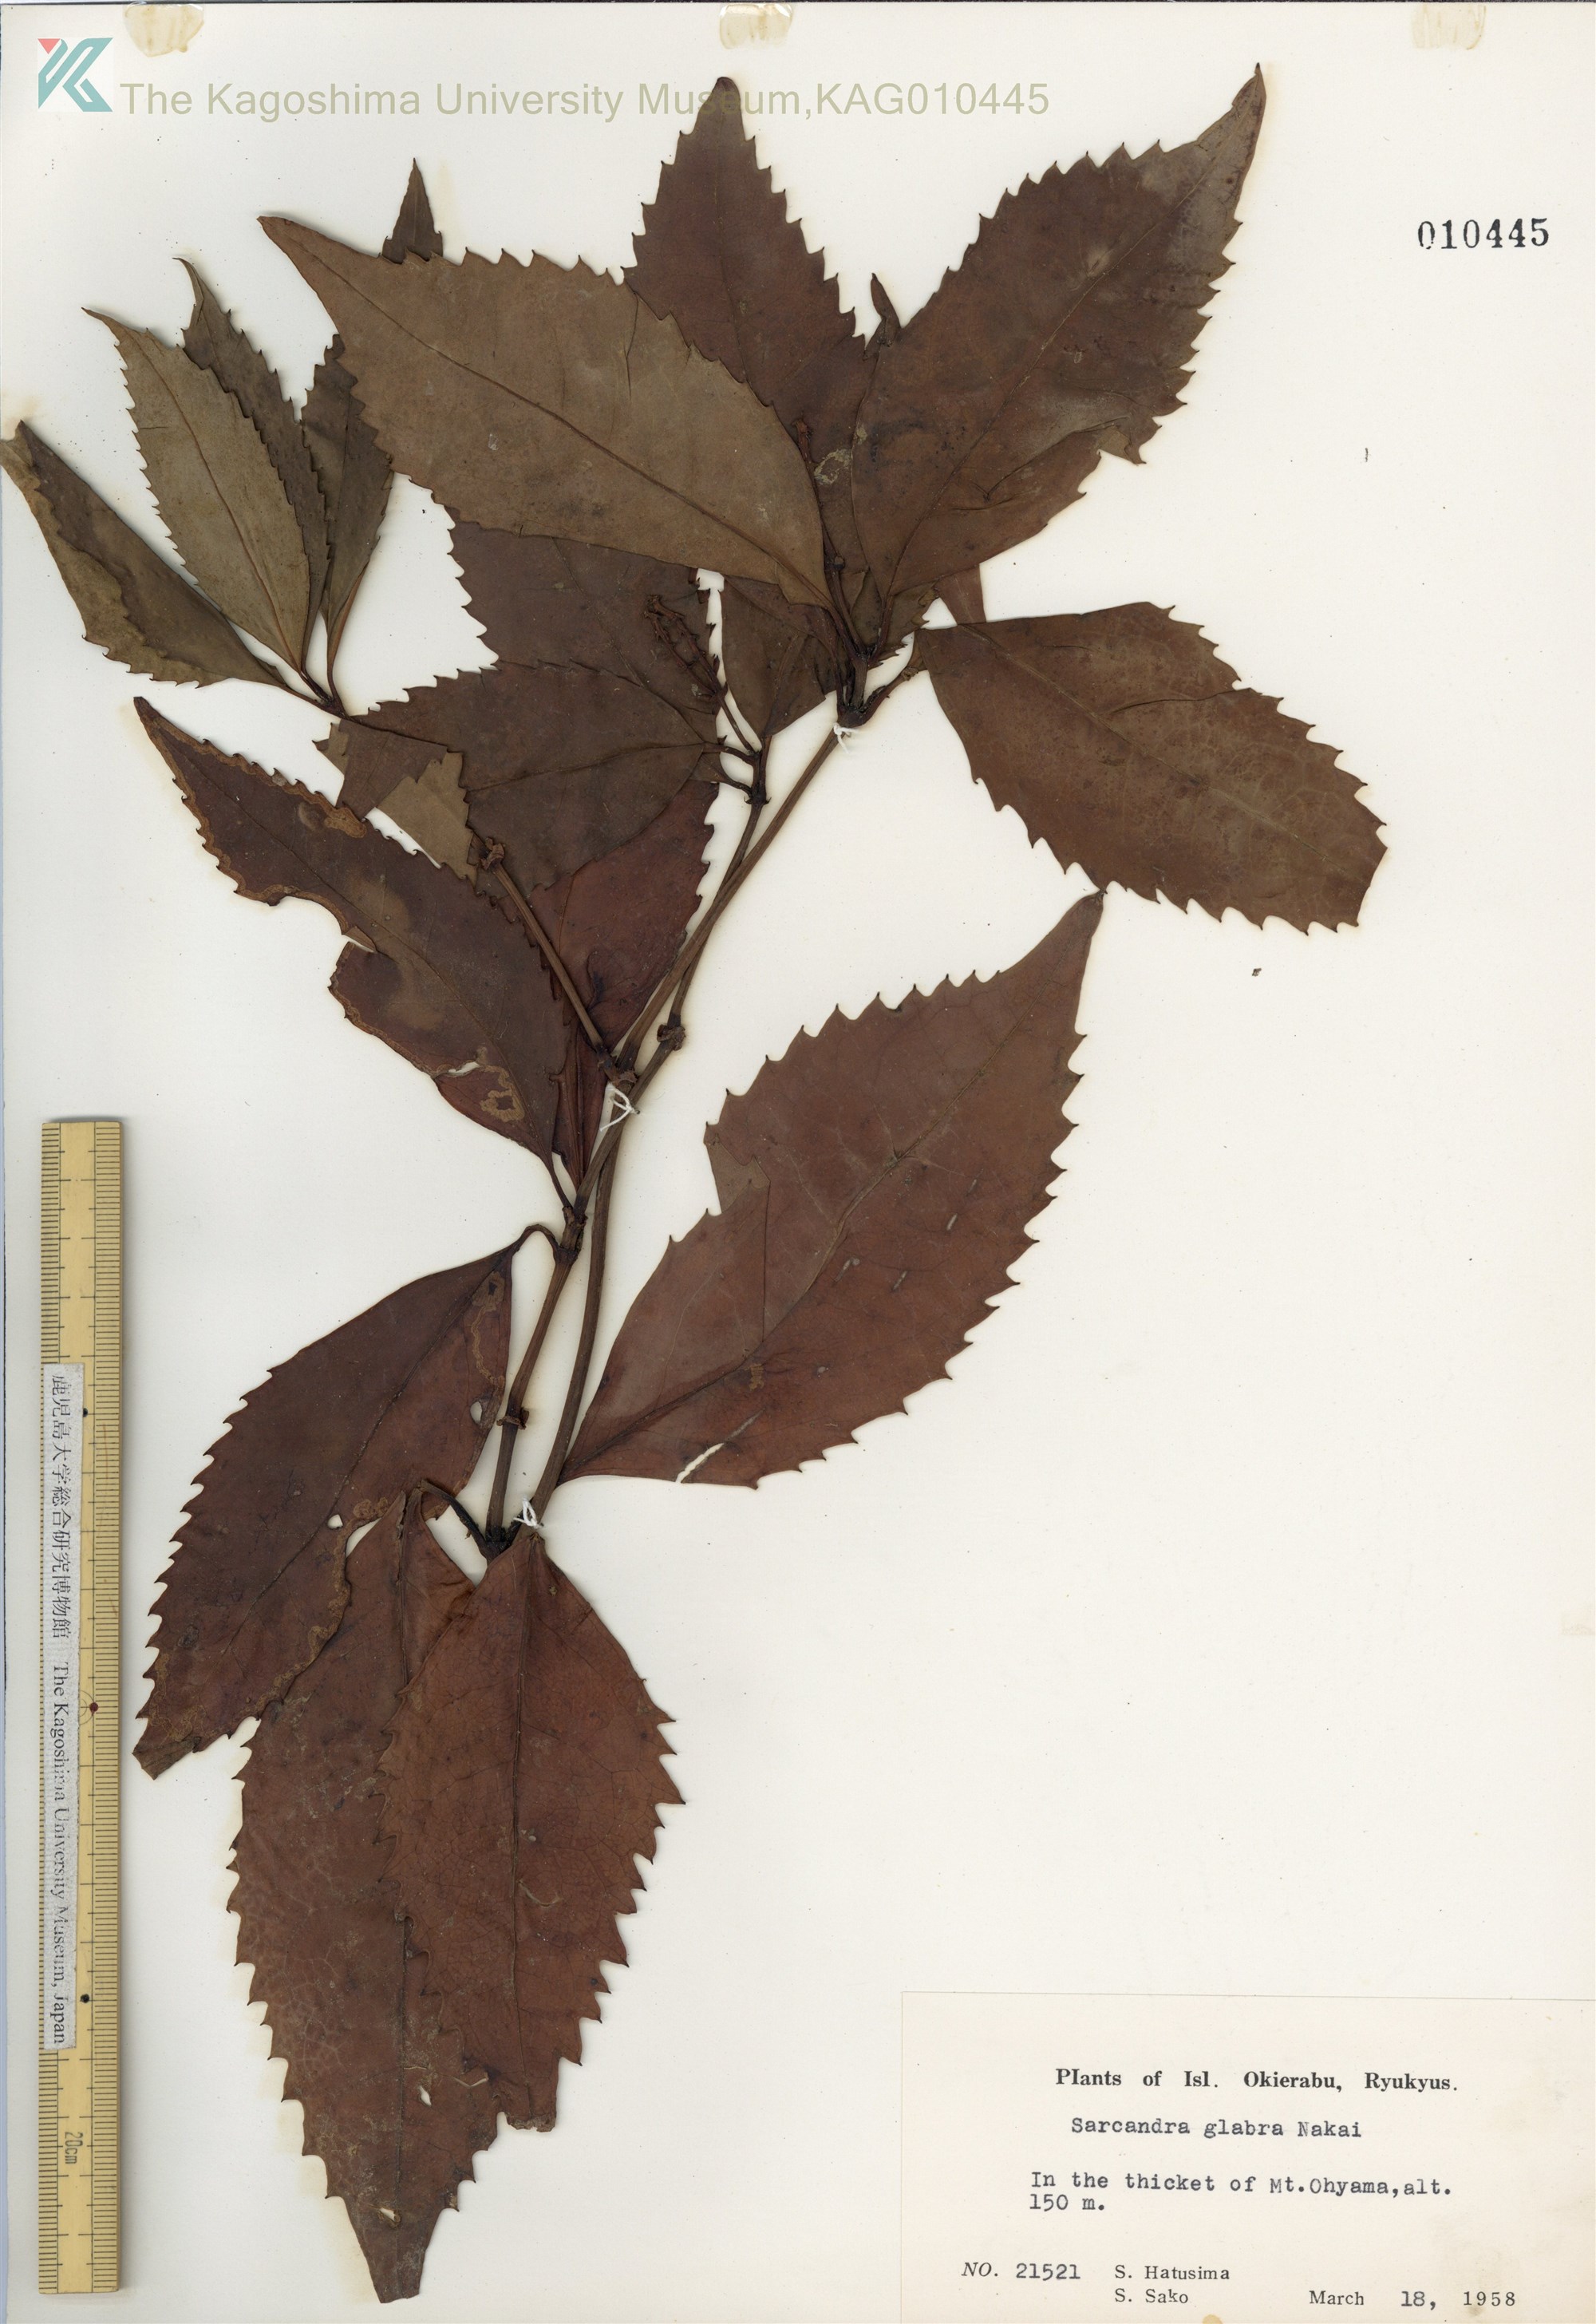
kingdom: Plantae
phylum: Tracheophyta
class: Magnoliopsida
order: Chloranthales
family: Chloranthaceae
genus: Sarcandra
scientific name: Sarcandra glabra
